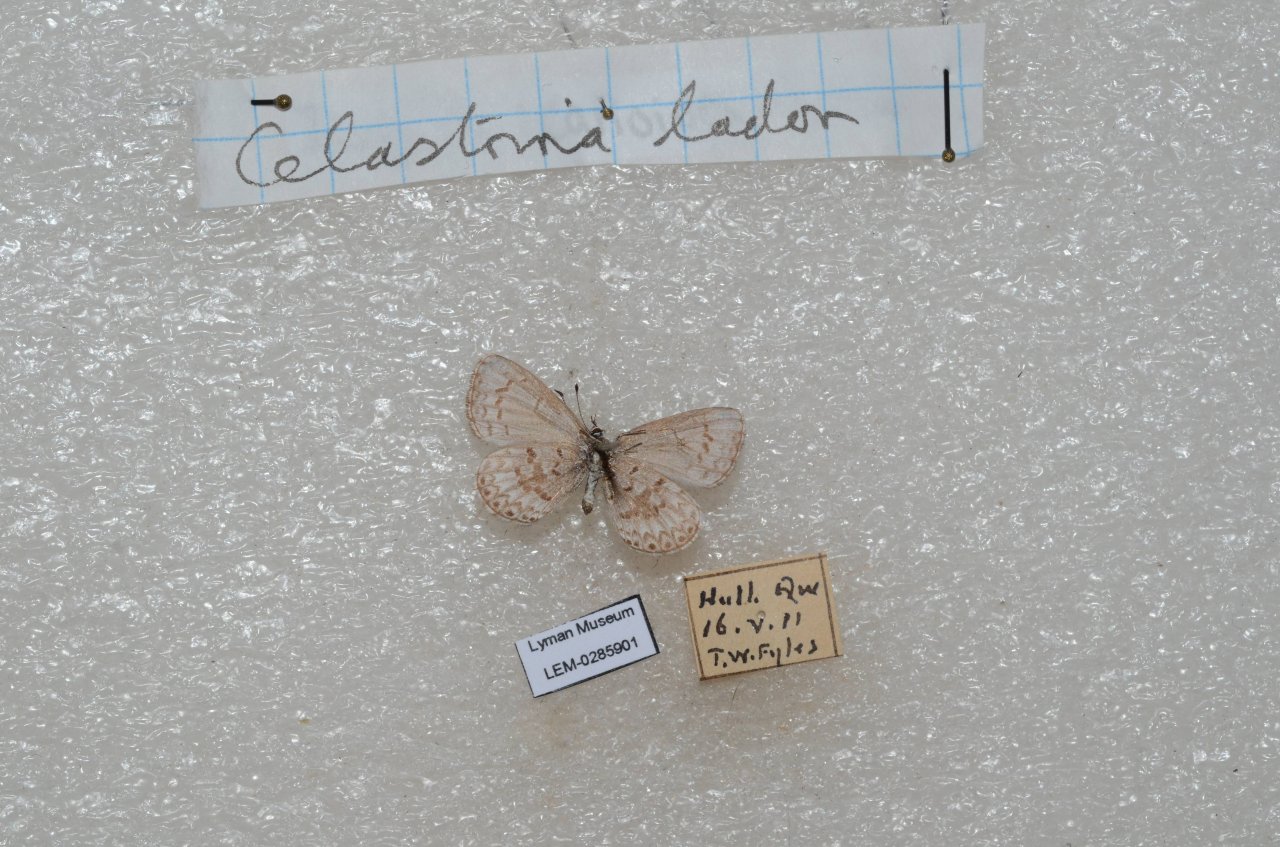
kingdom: Animalia
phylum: Arthropoda
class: Insecta
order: Lepidoptera
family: Lycaenidae
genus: Celastrina
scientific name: Celastrina lucia
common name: Northern Spring Azure
